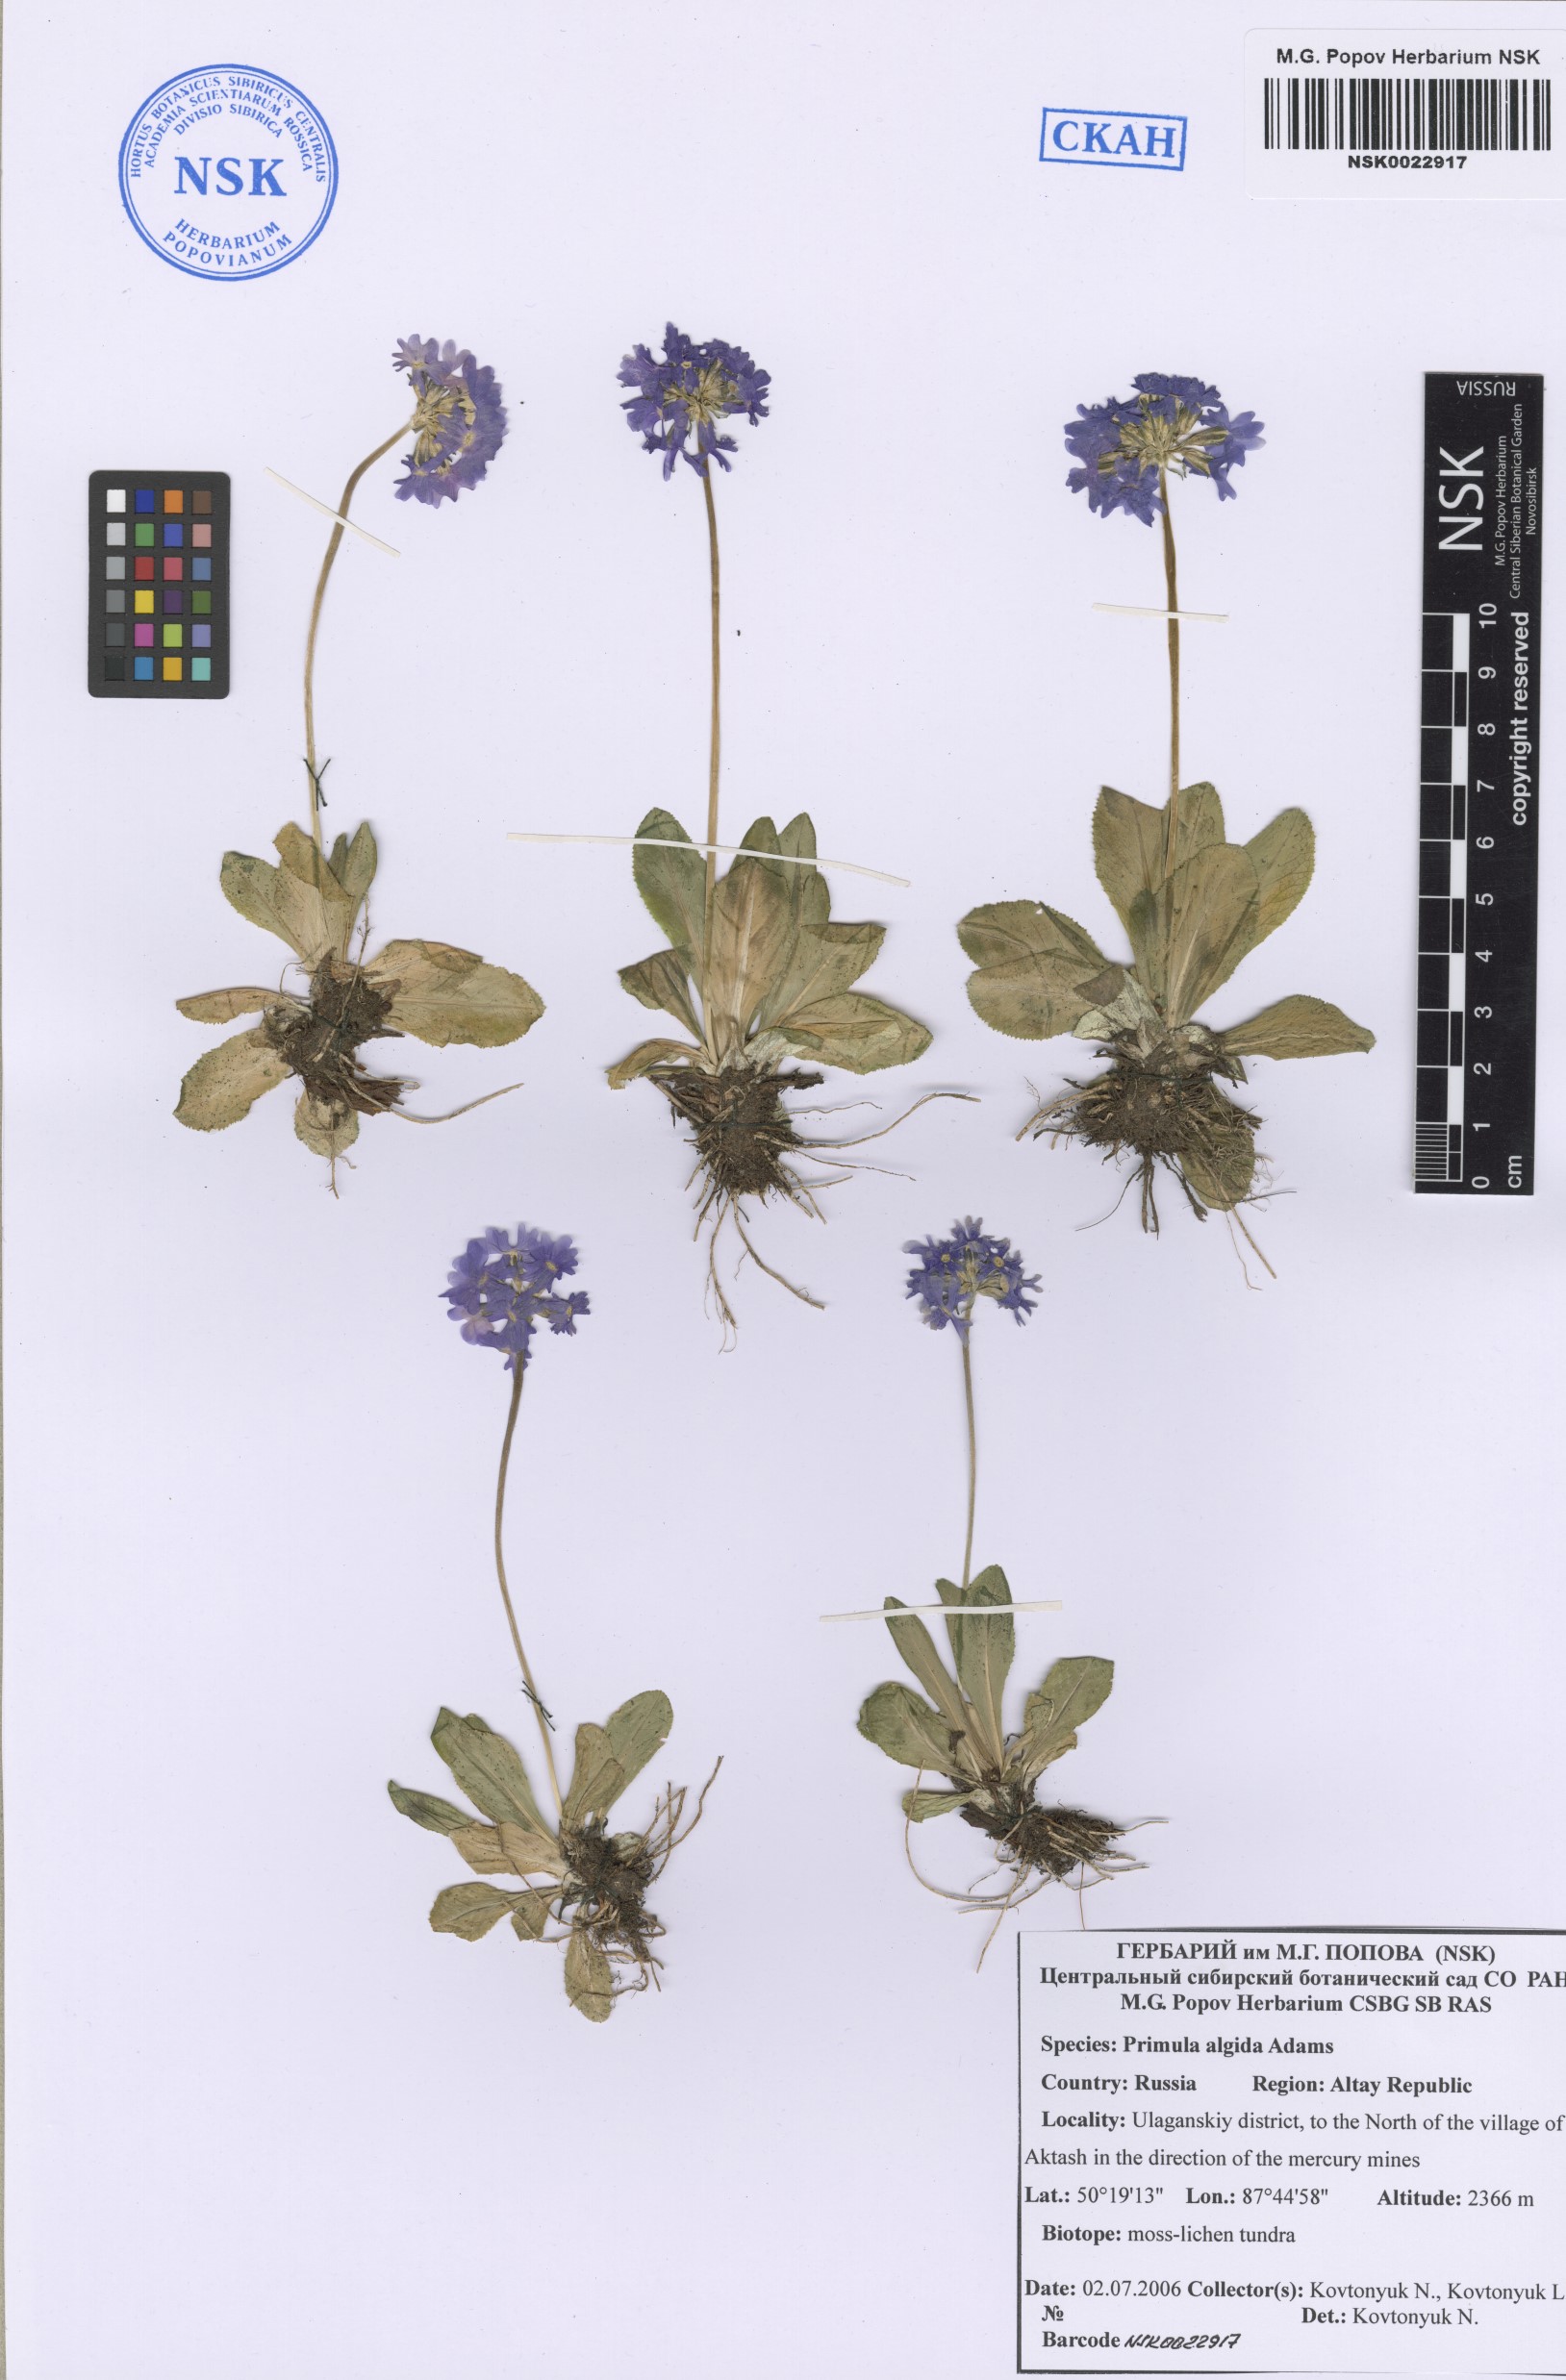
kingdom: Plantae
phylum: Tracheophyta
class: Magnoliopsida
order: Ericales
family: Primulaceae
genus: Primula
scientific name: Primula algida
